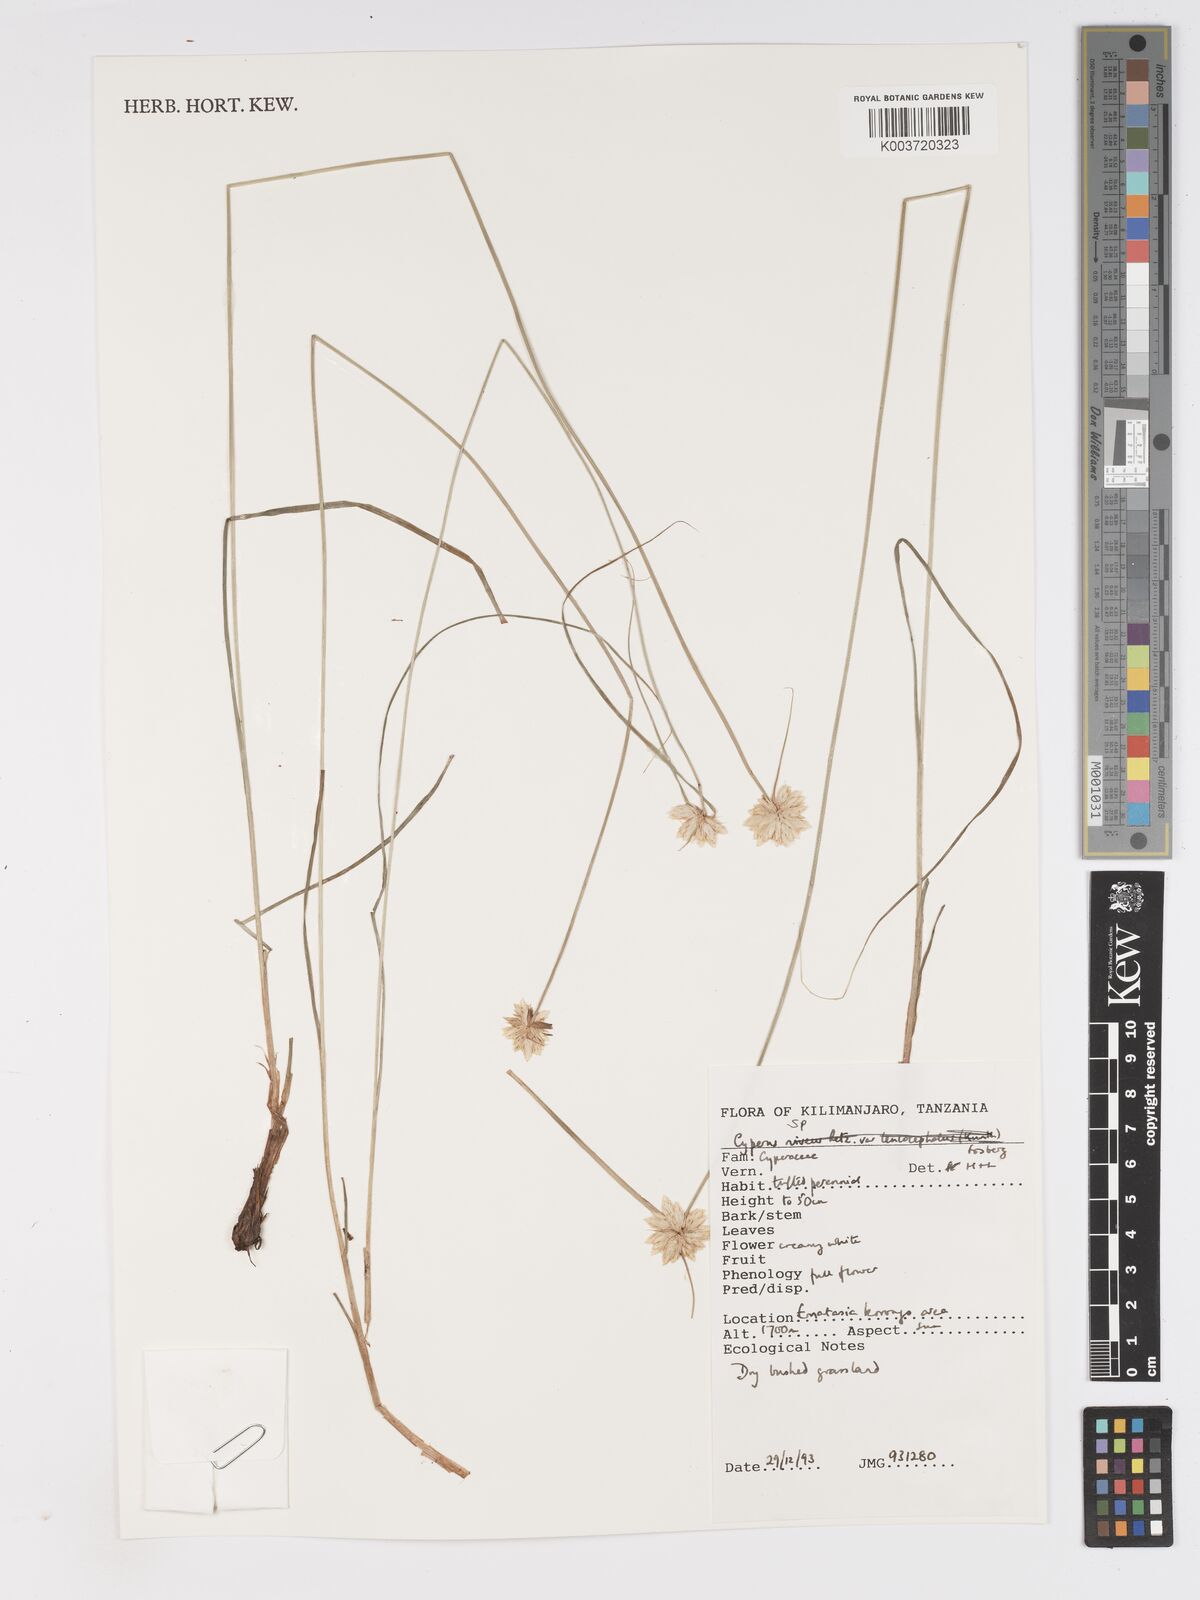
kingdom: Plantae
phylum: Tracheophyta
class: Liliopsida
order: Poales
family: Cyperaceae
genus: Cyperus
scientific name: Cyperus
